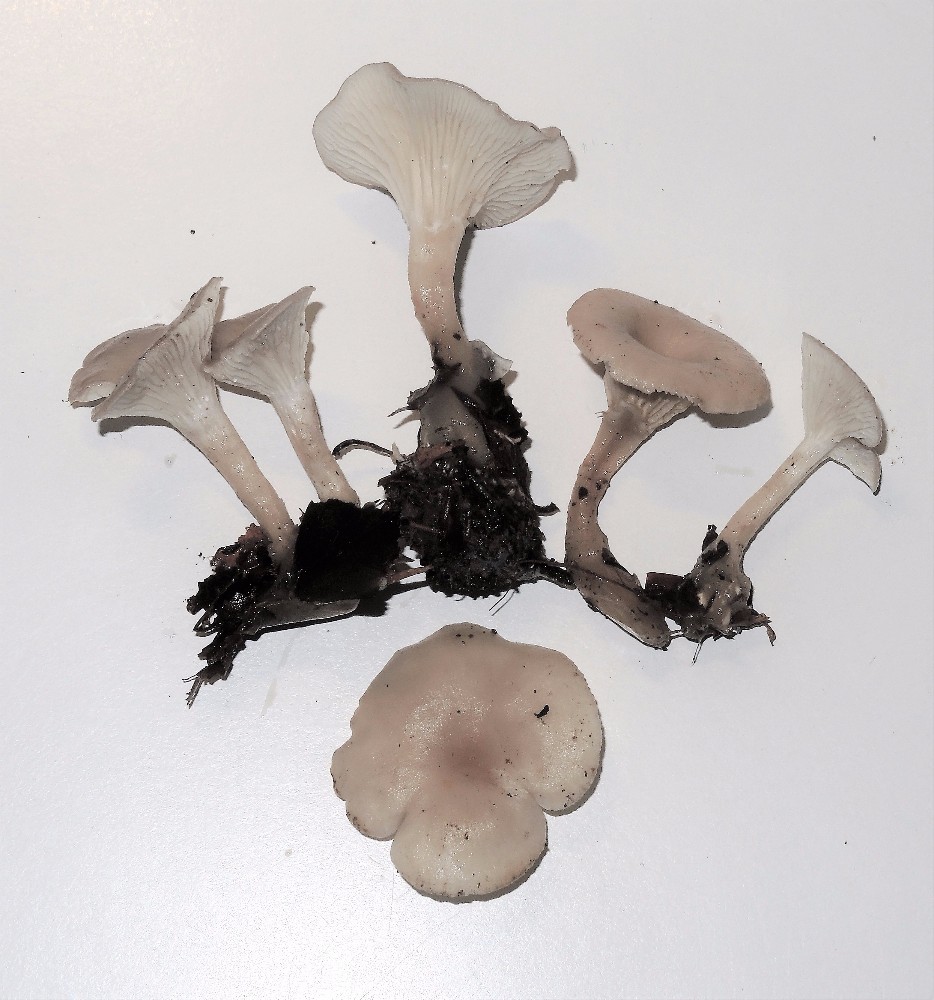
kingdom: Fungi
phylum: Basidiomycota
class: Agaricomycetes
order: Agaricales
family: Tricholomataceae
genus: Clitocybe
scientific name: Clitocybe phaeophthalma
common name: stinkende tragthat
